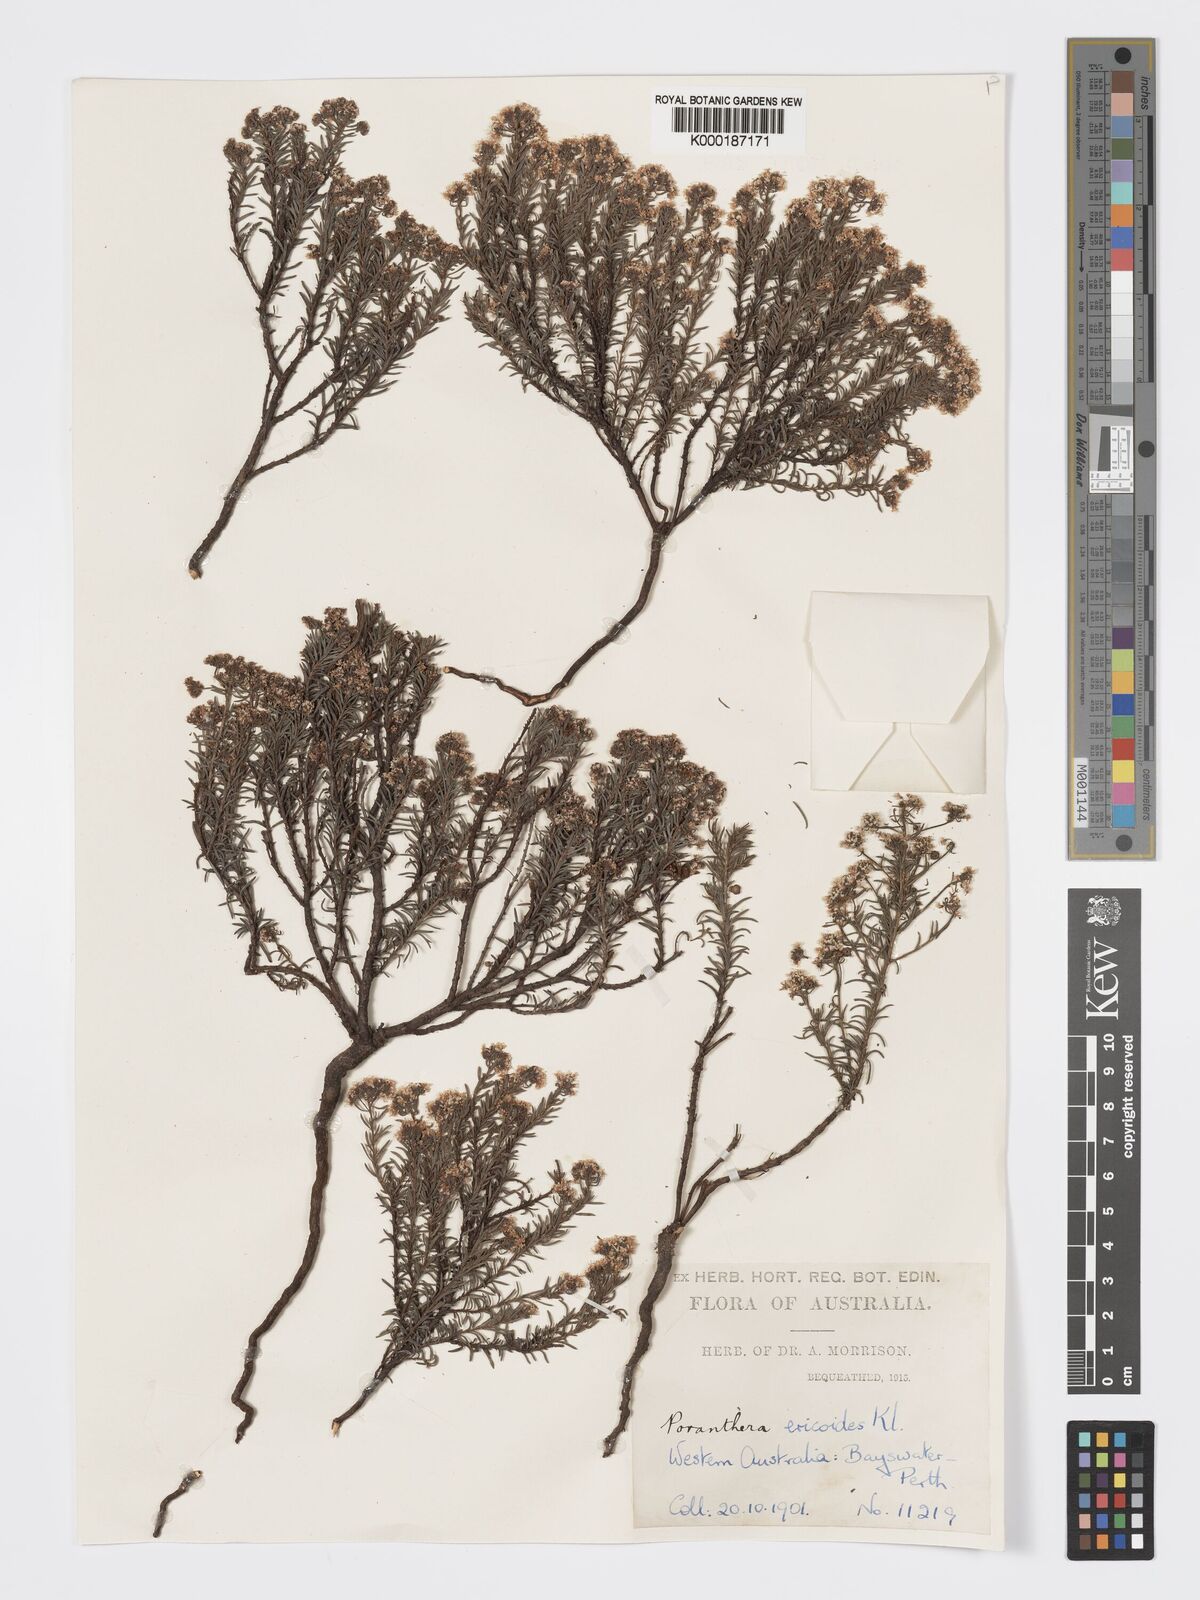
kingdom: Plantae
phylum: Tracheophyta
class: Magnoliopsida
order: Malpighiales
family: Phyllanthaceae
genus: Poranthera
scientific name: Poranthera ericoides
